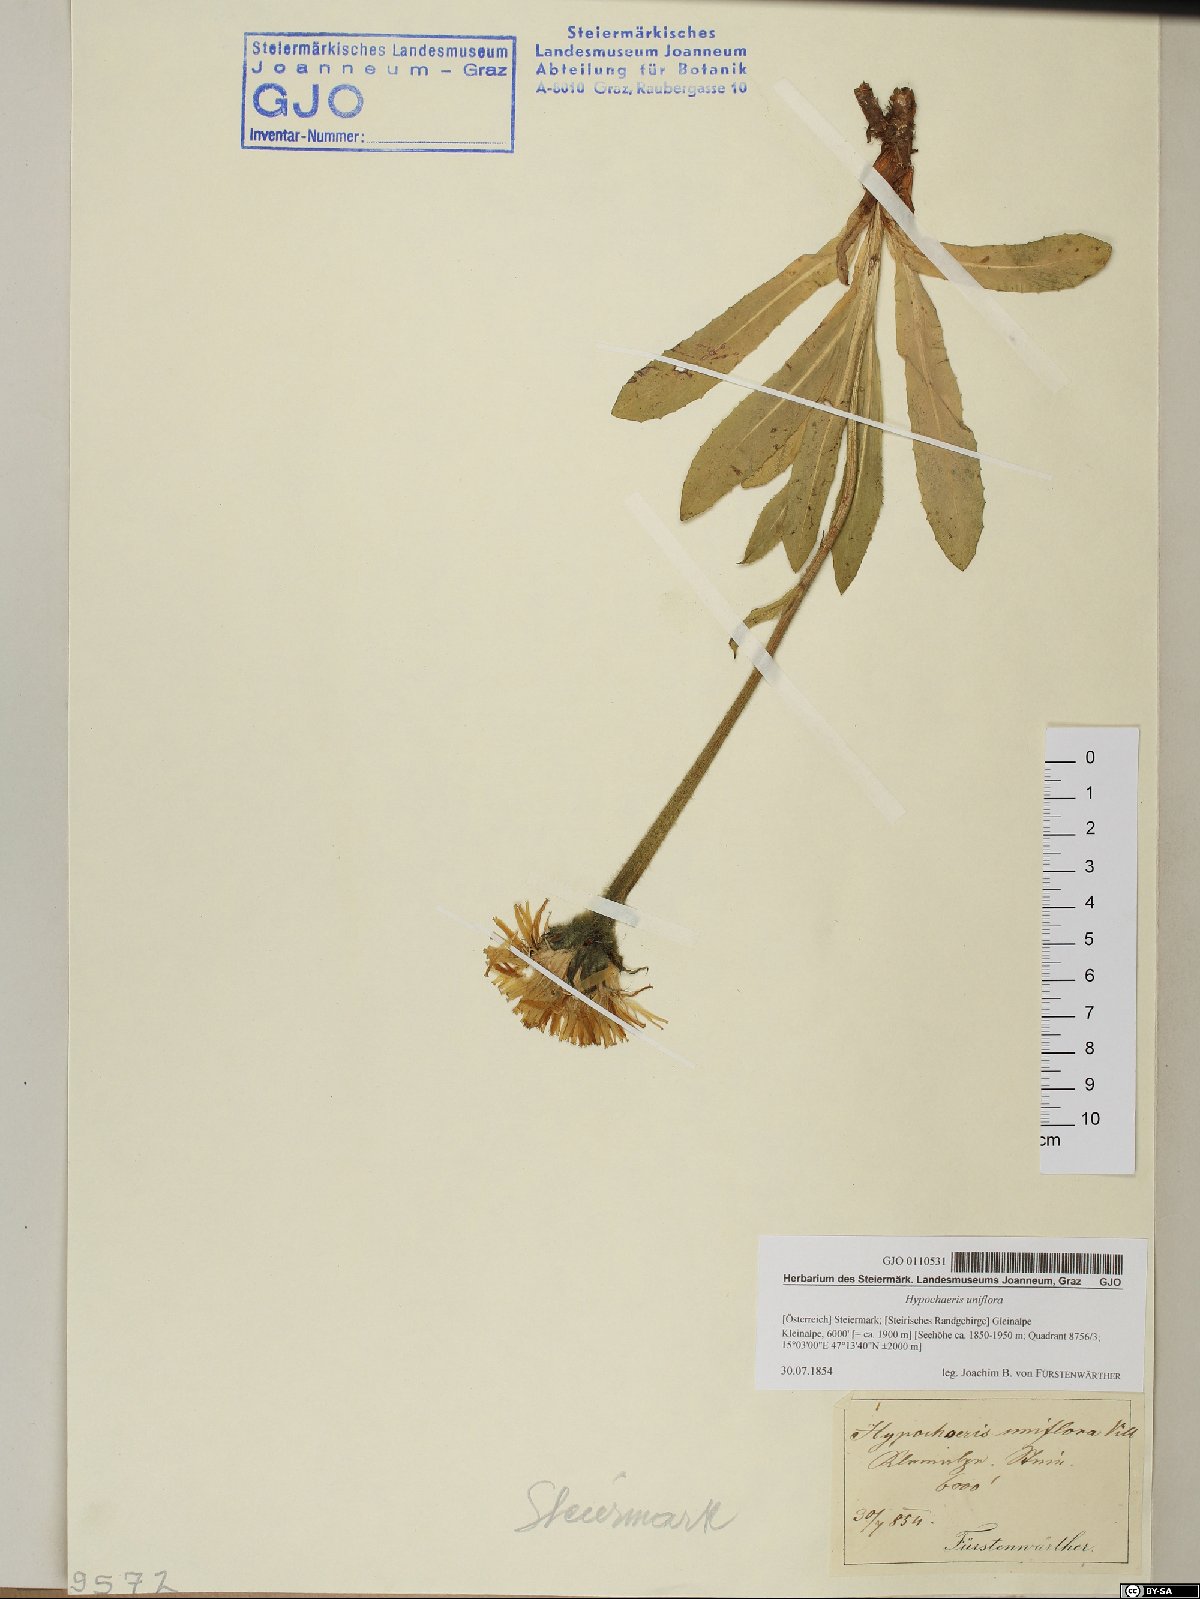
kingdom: Plantae
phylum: Tracheophyta
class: Magnoliopsida
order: Asterales
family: Asteraceae
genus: Trommsdorffia
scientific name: Trommsdorffia uniflora
